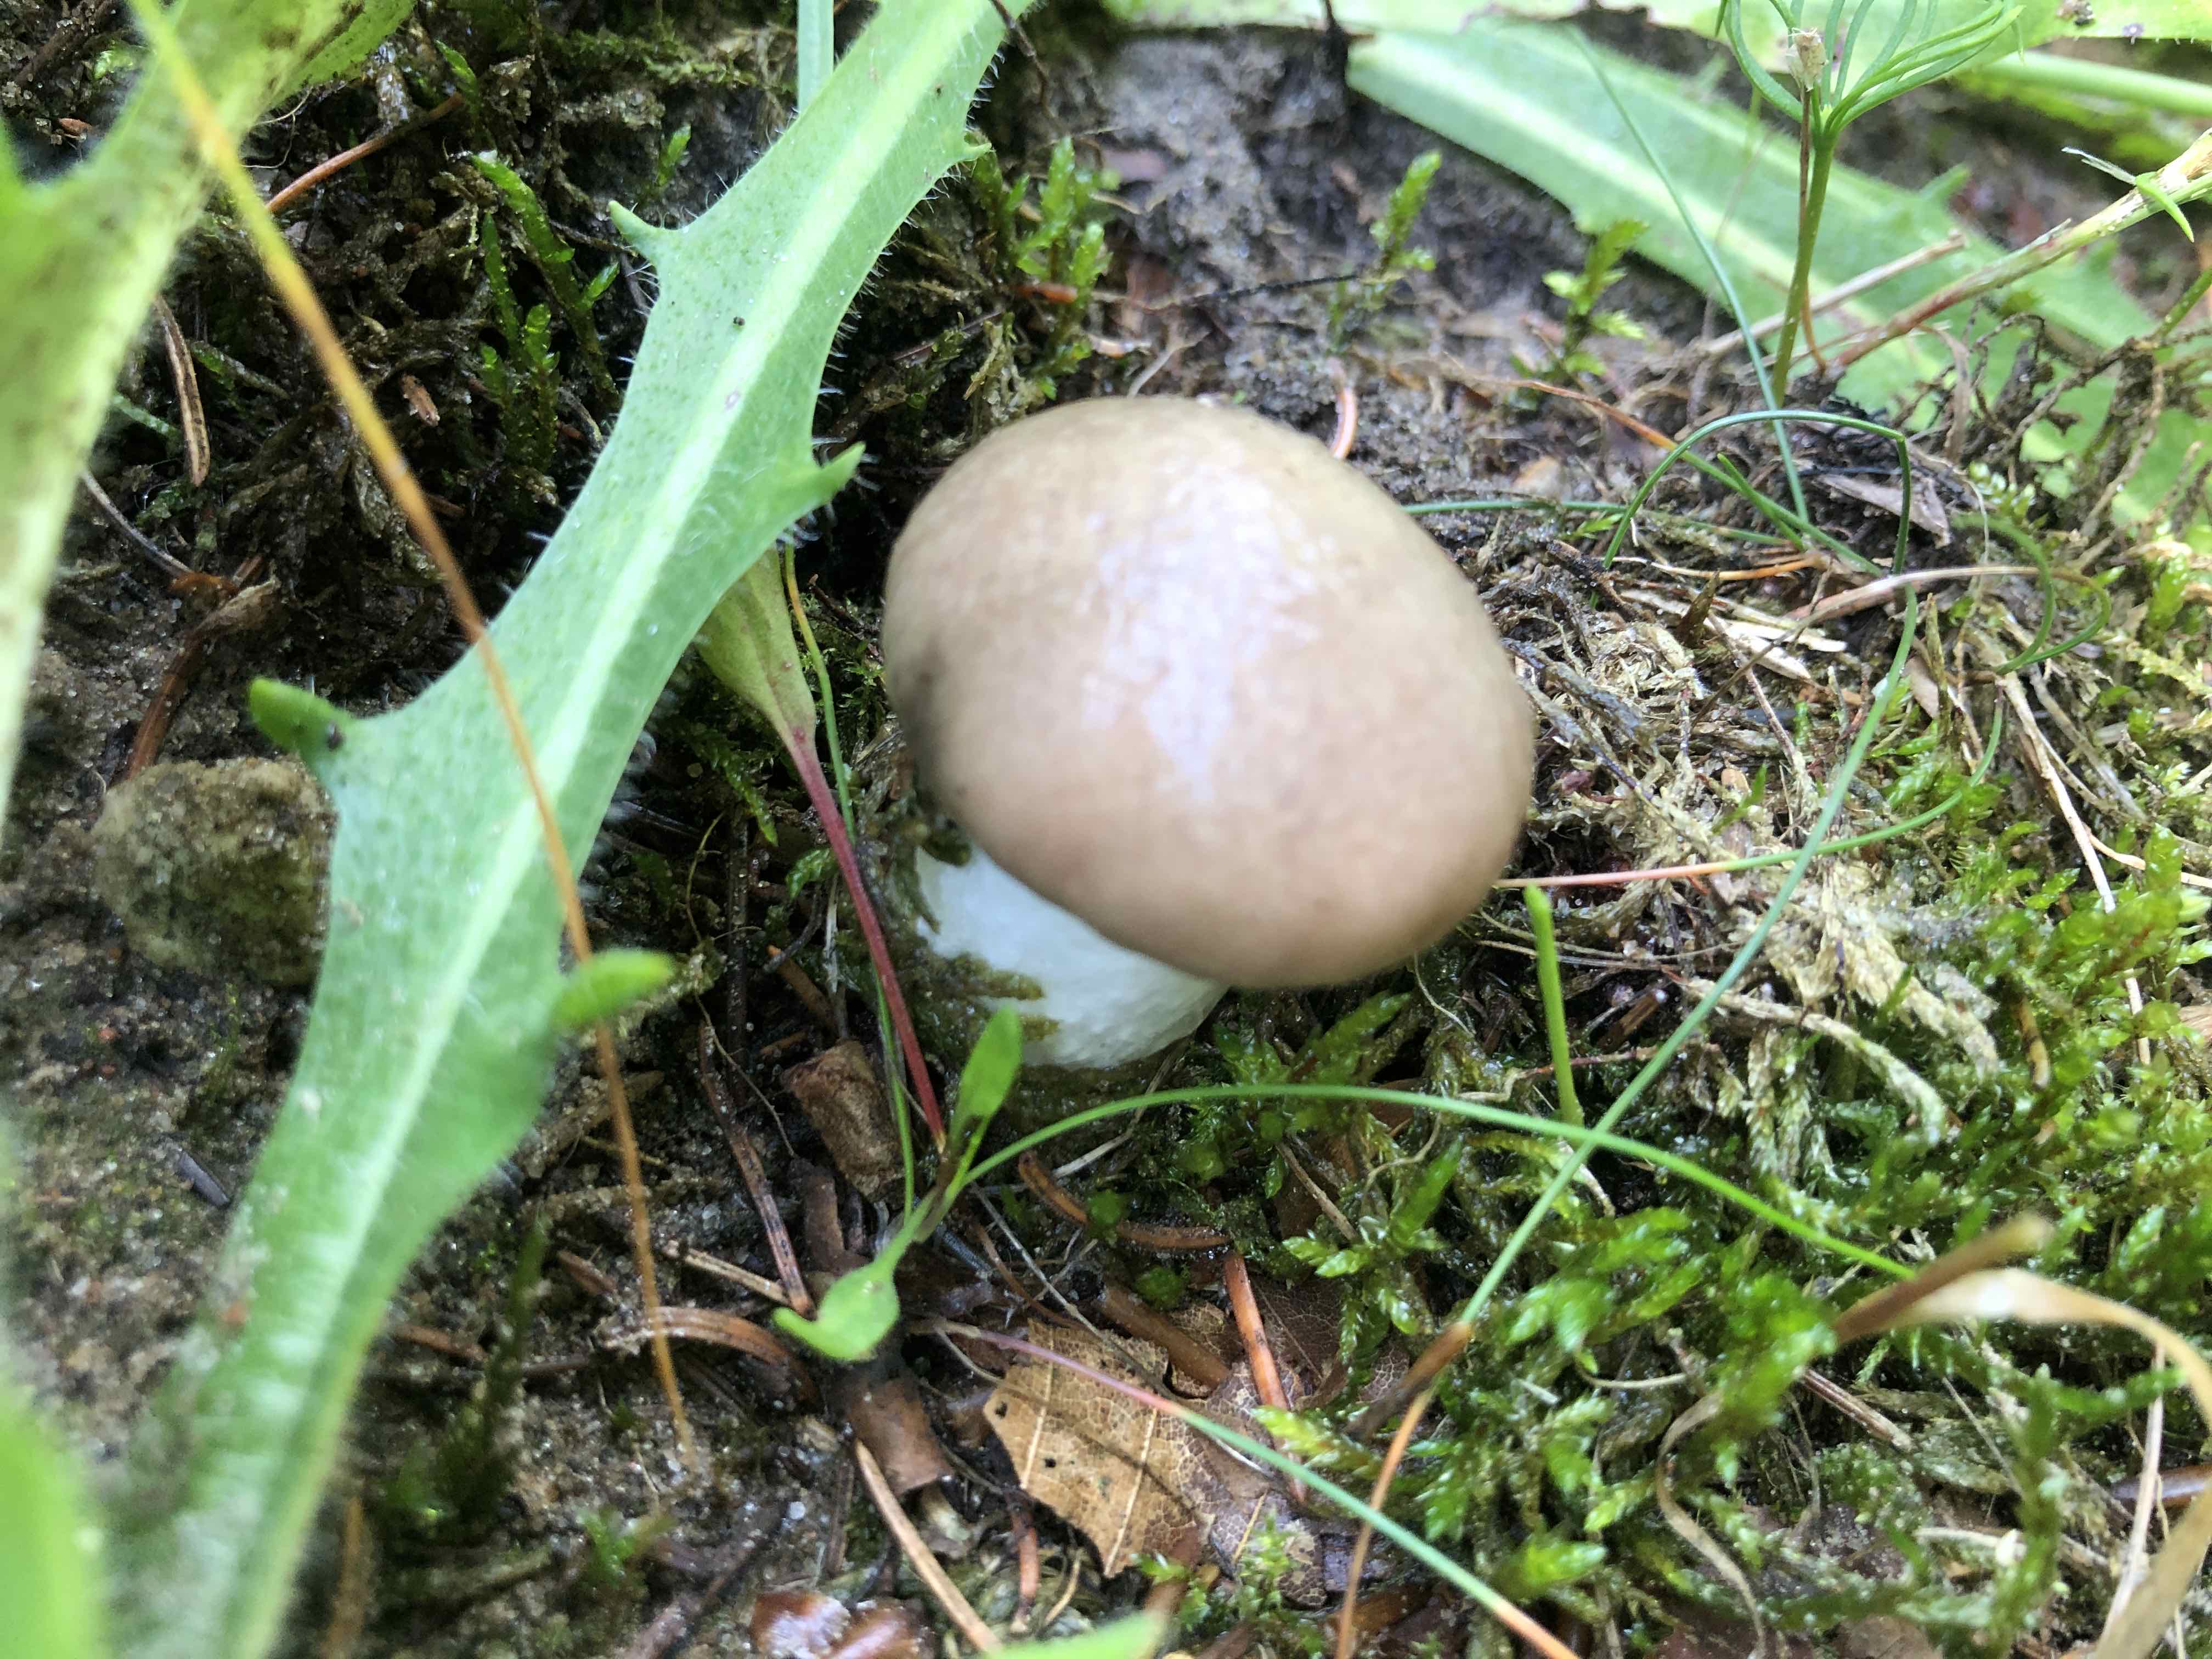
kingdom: Fungi
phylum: Basidiomycota
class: Agaricomycetes
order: Boletales
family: Gomphidiaceae
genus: Gomphidius
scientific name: Gomphidius glutinosus
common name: grå slimslør
